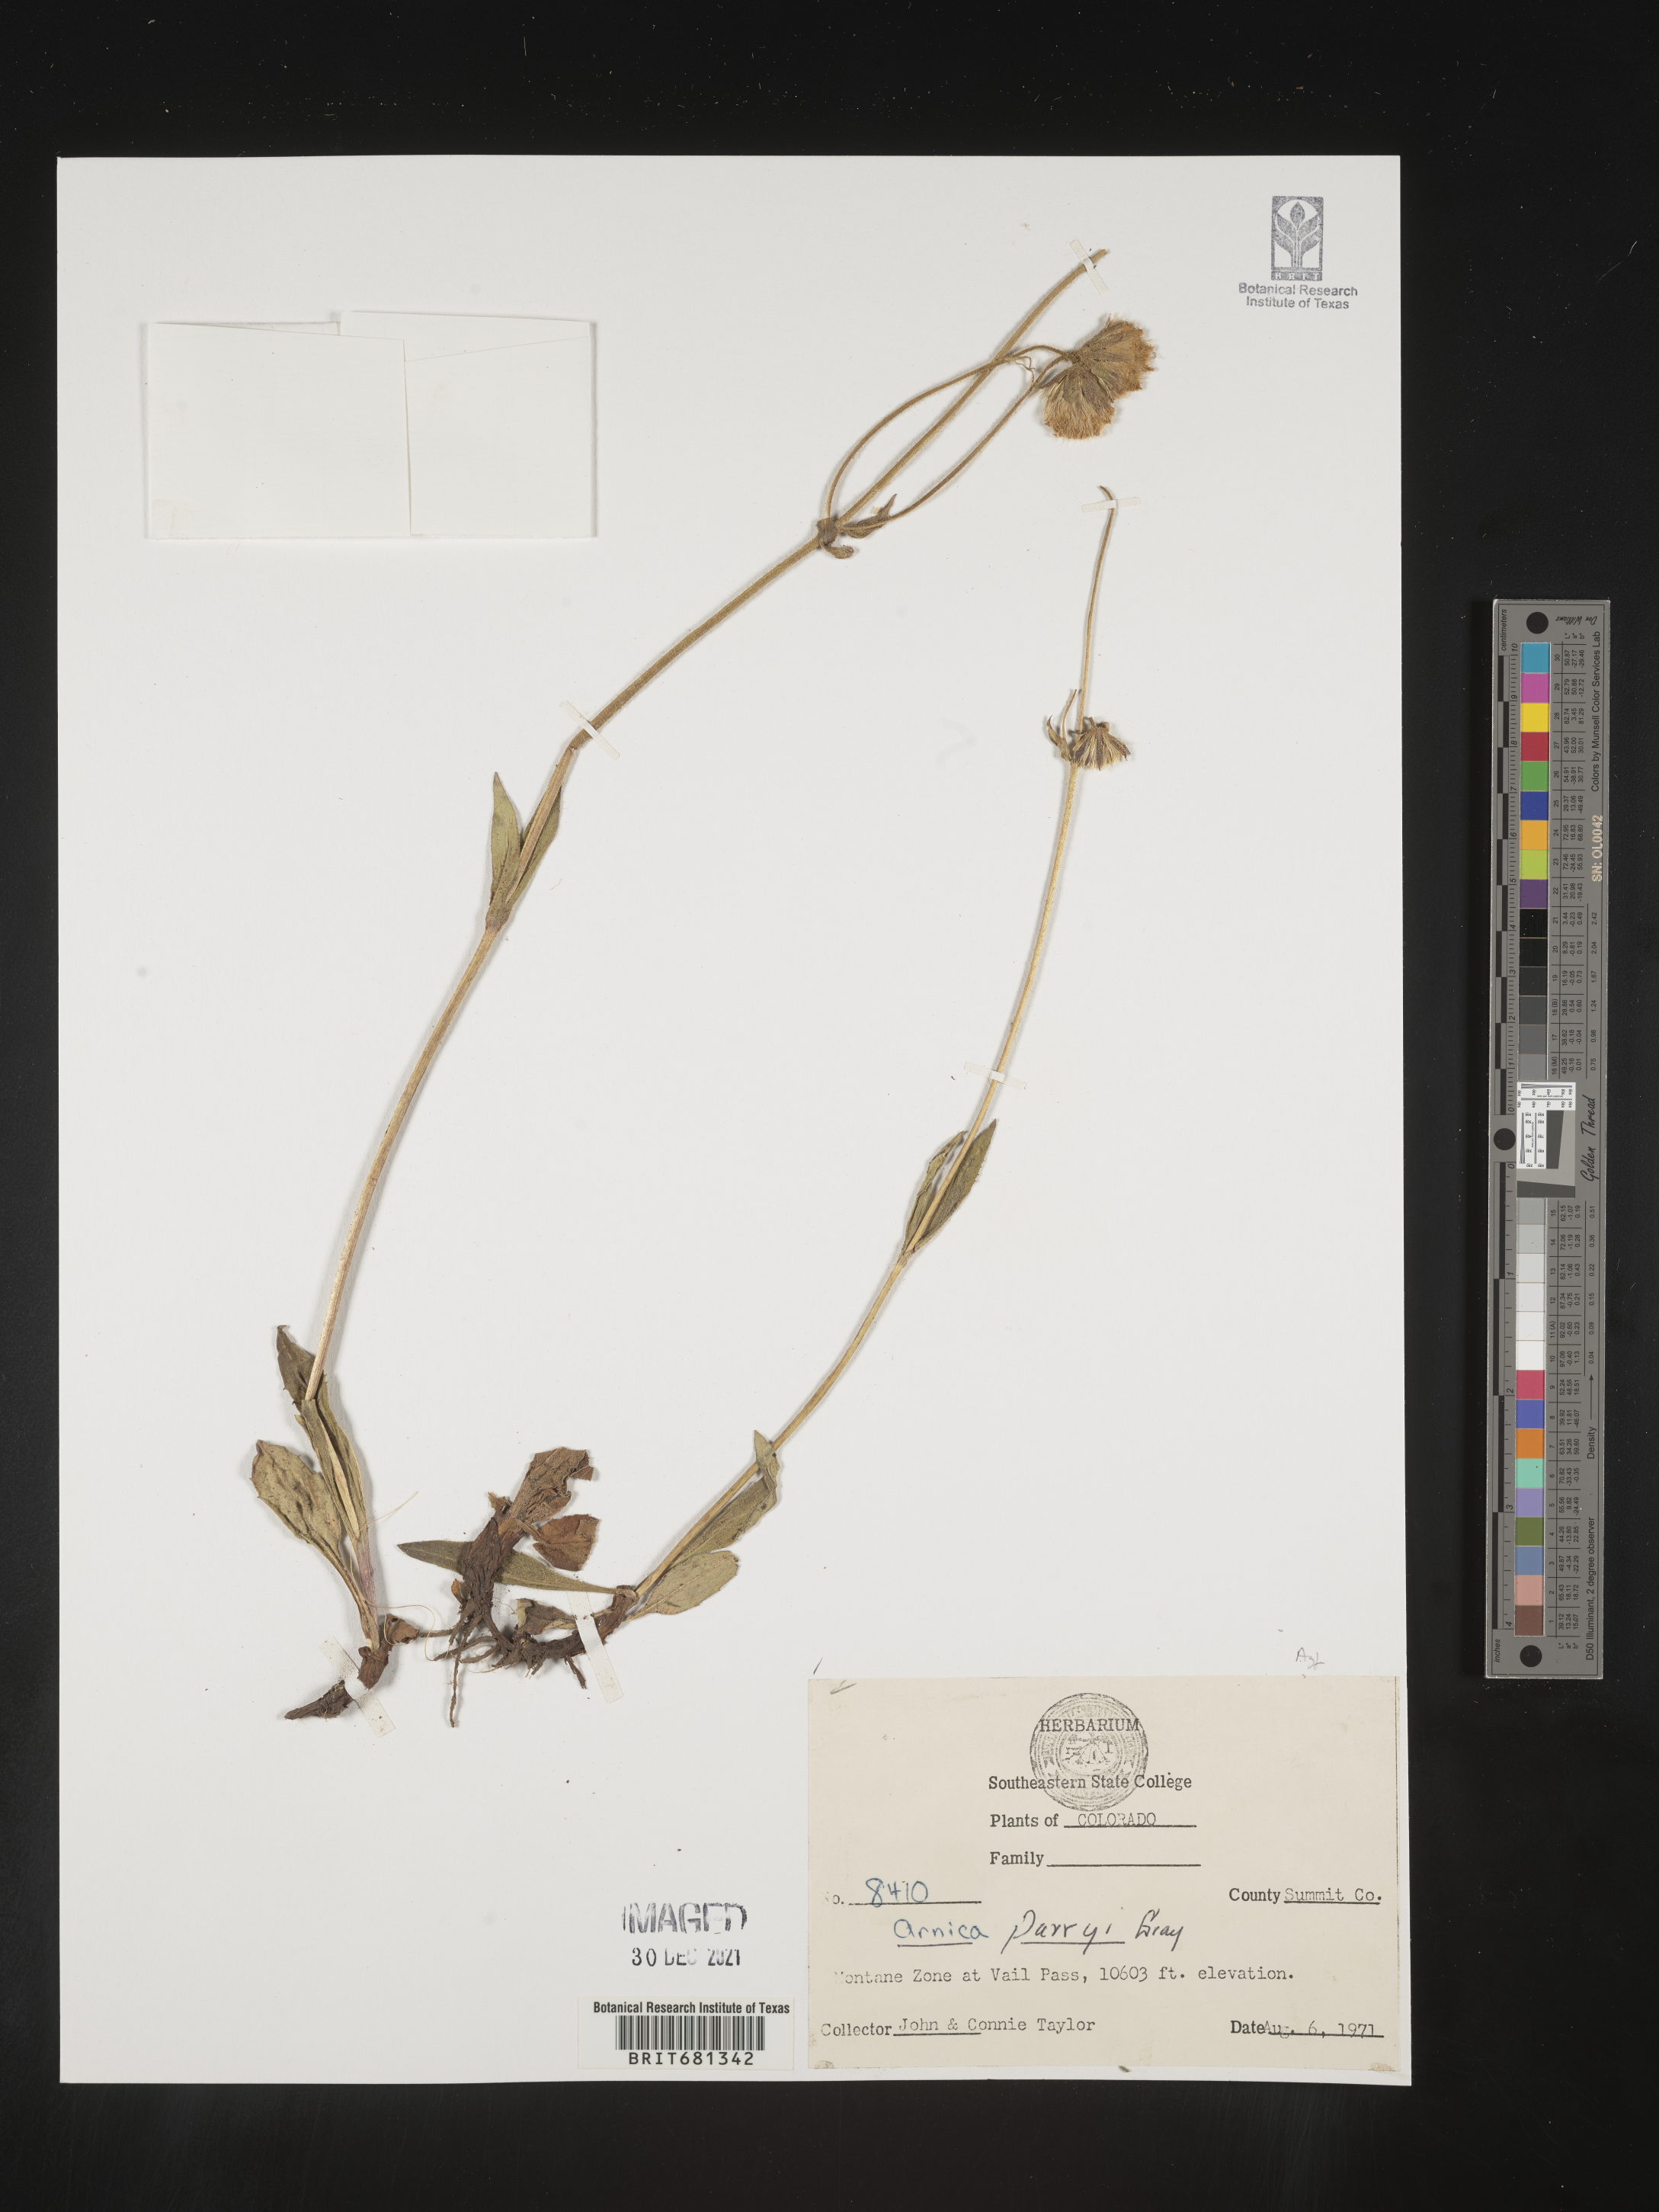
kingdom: Plantae
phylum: Tracheophyta
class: Magnoliopsida
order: Asterales
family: Asteraceae
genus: Arnica
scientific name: Arnica parryi
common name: Parry's arnica
